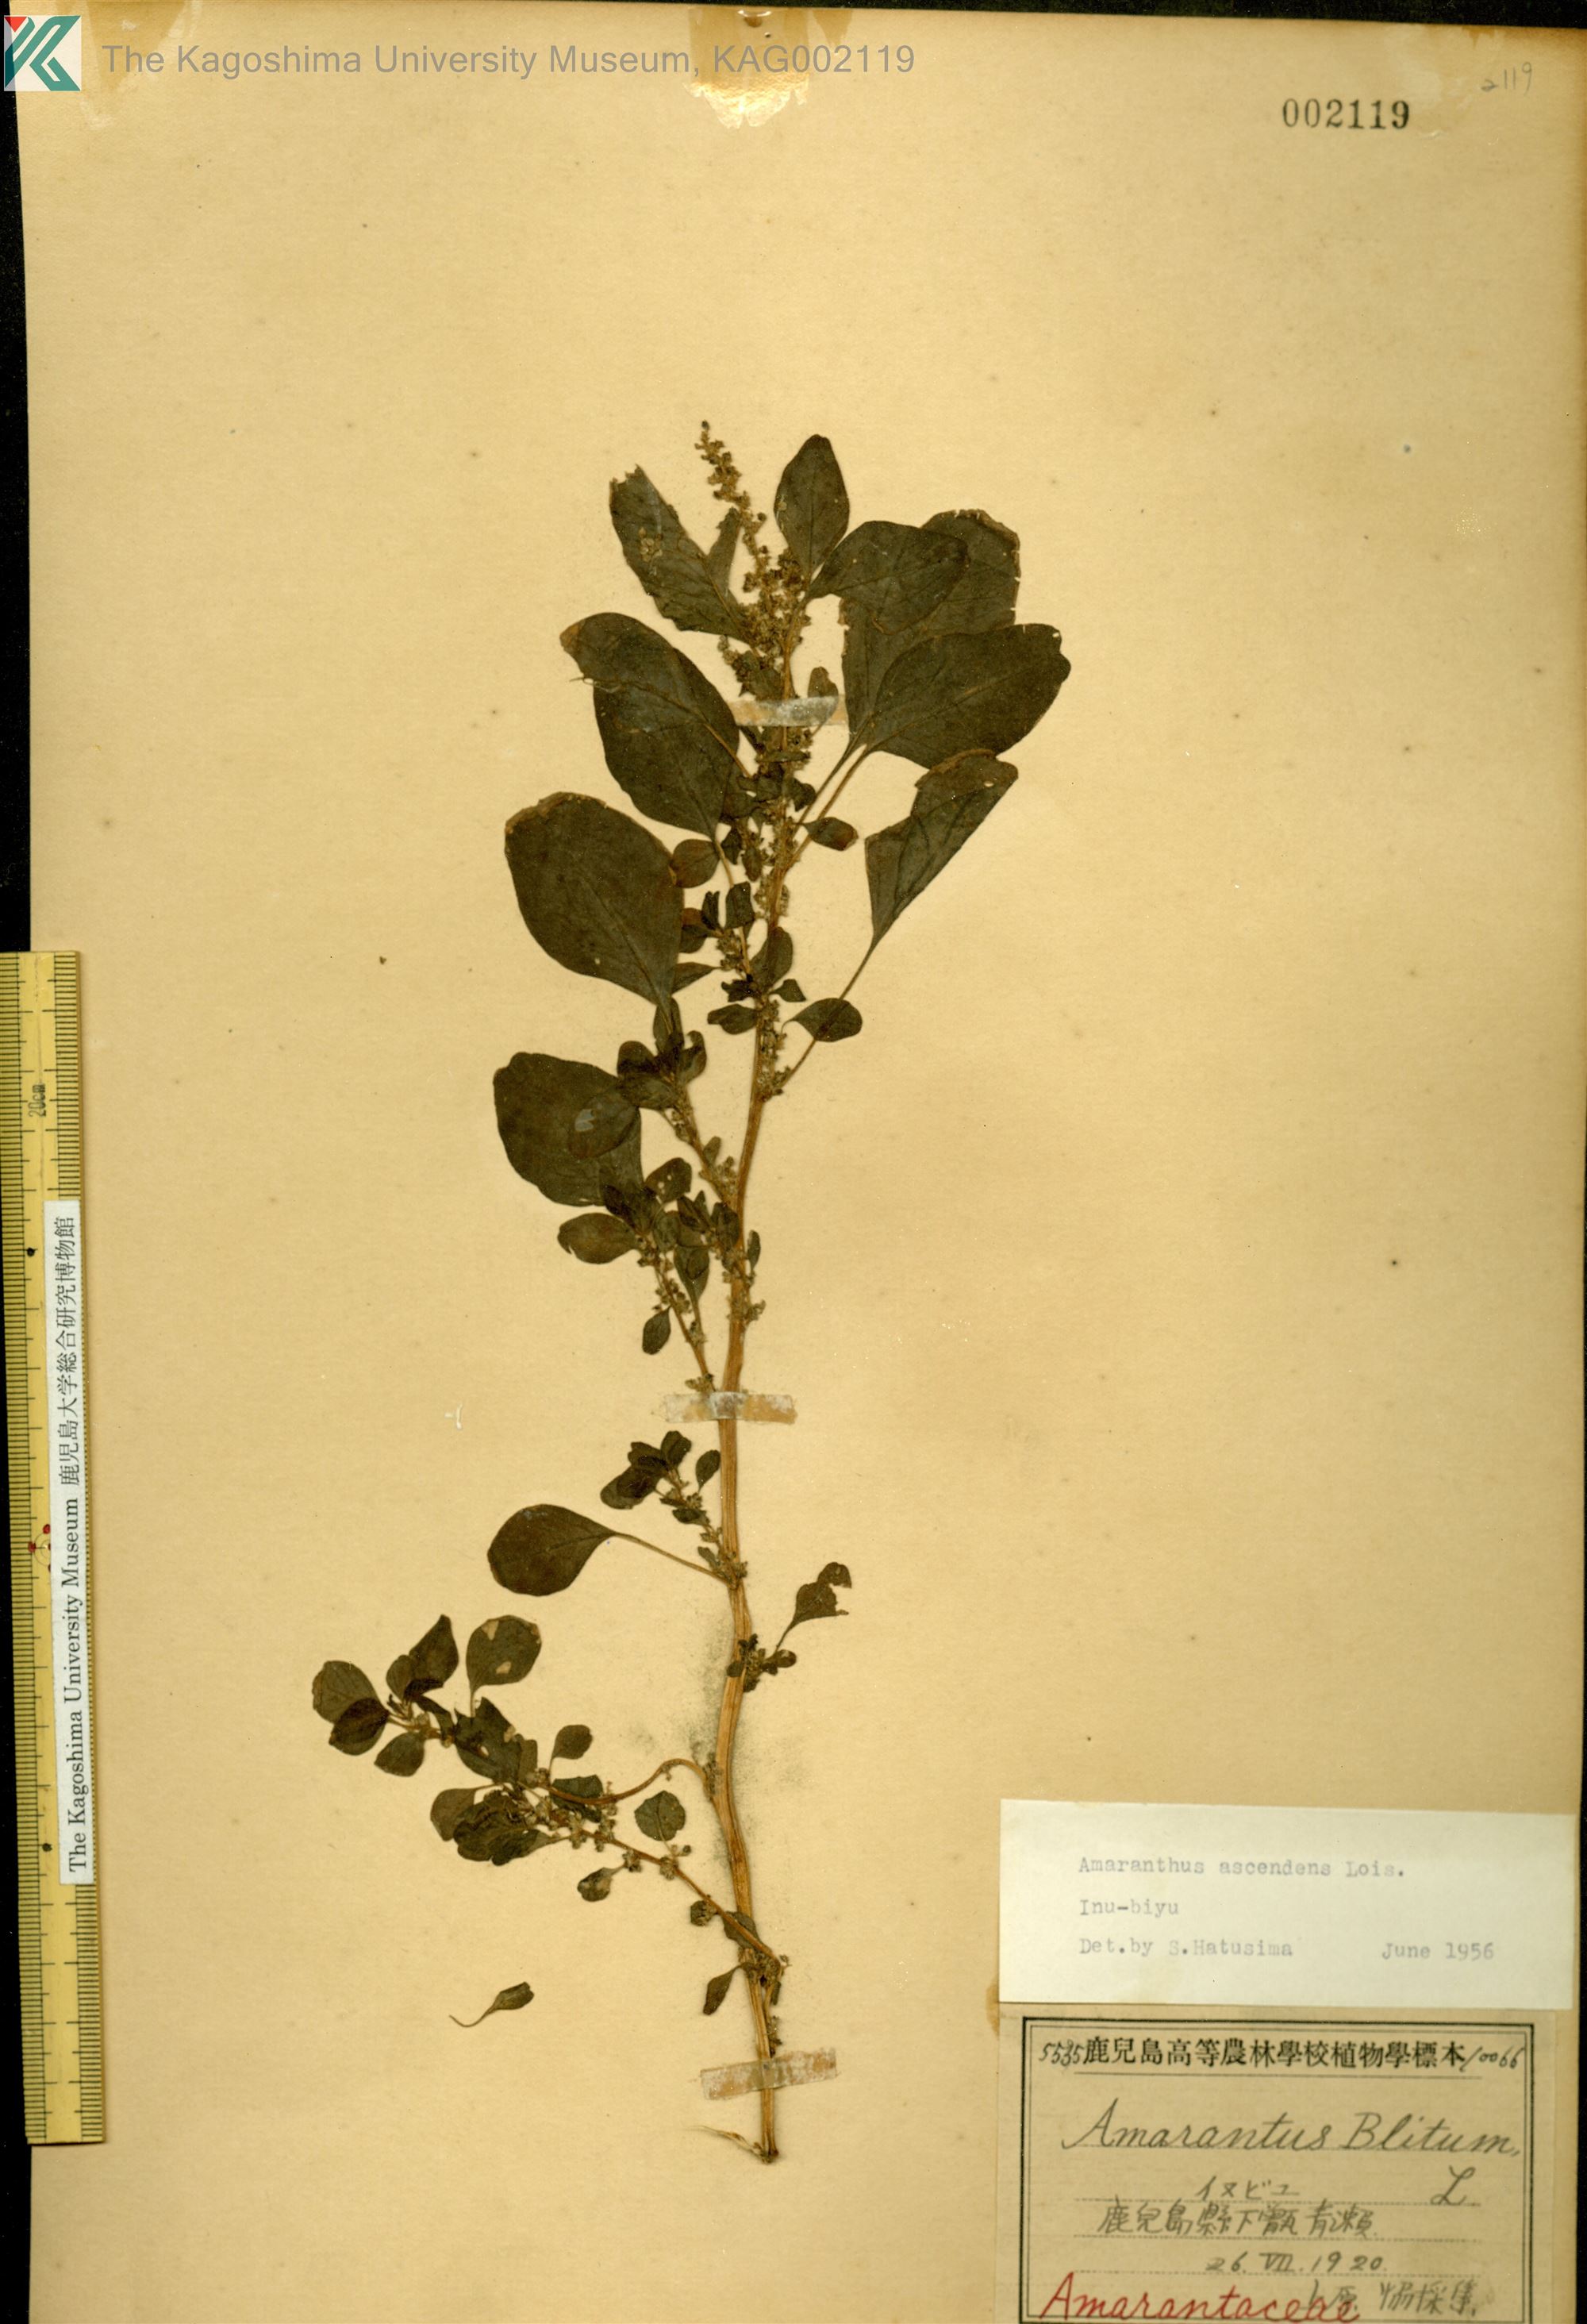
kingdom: Plantae
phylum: Tracheophyta
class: Magnoliopsida
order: Caryophyllales
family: Amaranthaceae
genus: Amaranthus
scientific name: Amaranthus blitum
